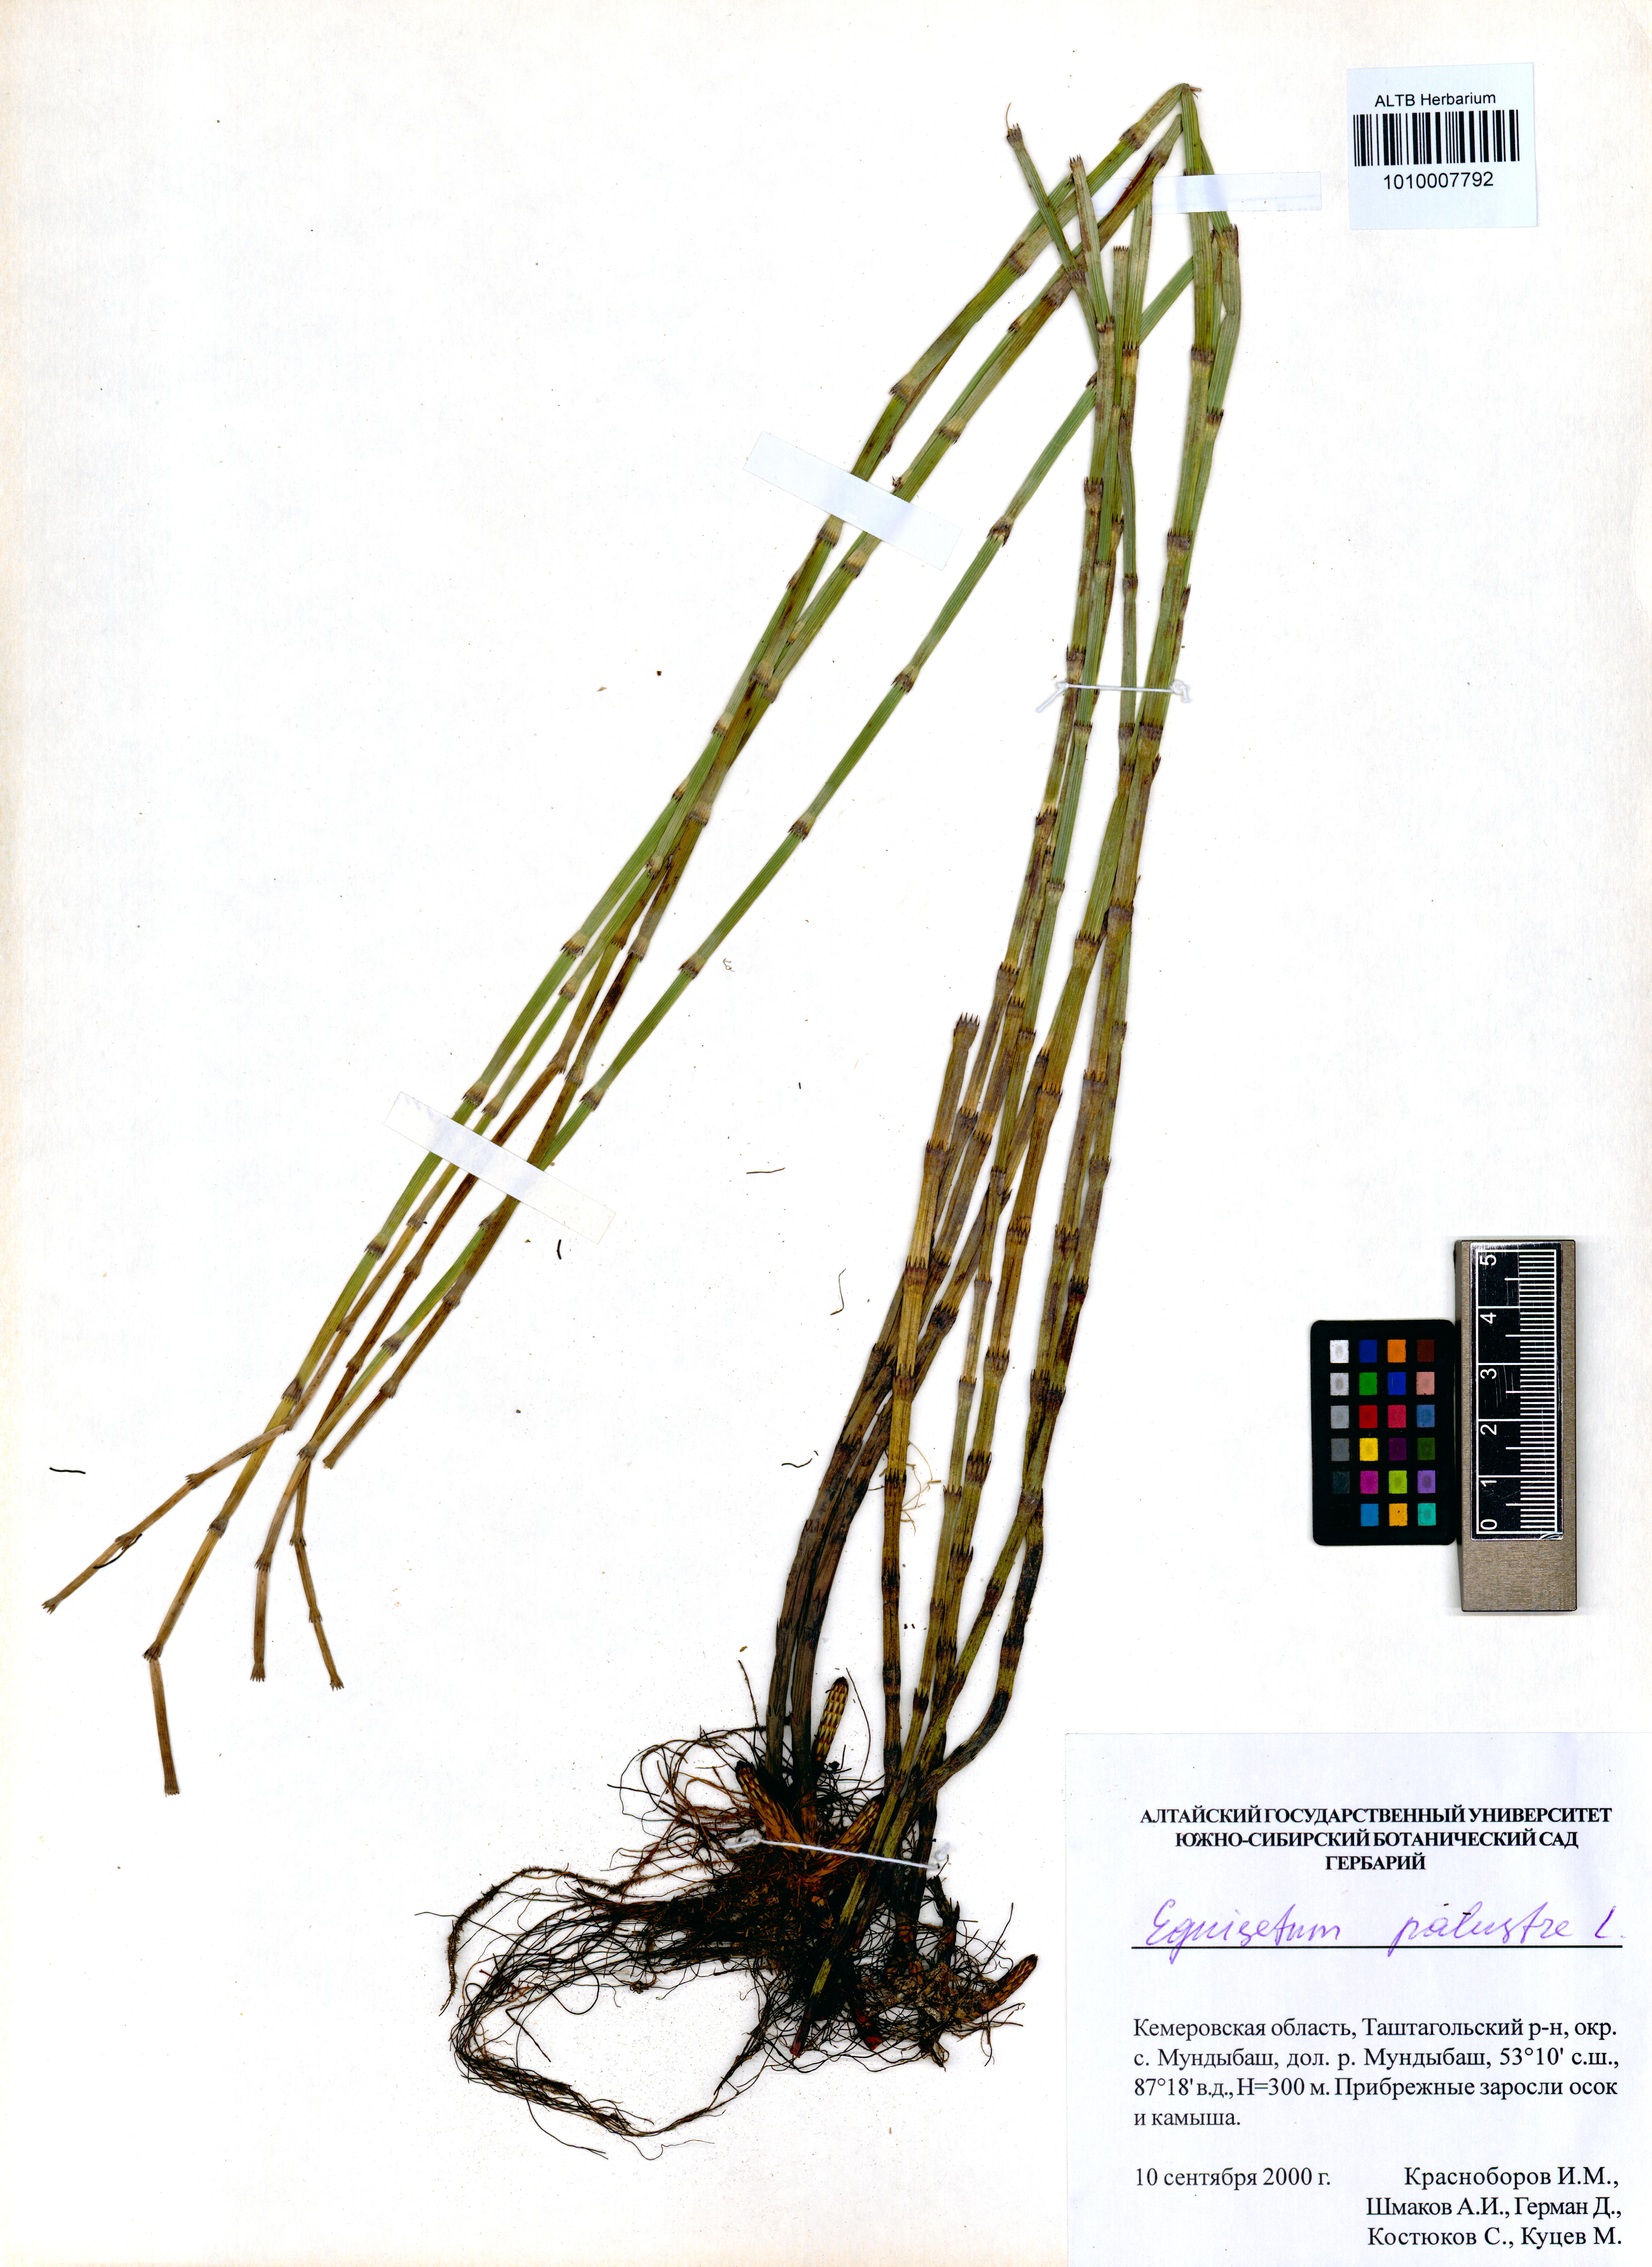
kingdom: Plantae
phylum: Tracheophyta
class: Polypodiopsida
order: Equisetales
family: Equisetaceae
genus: Equisetum
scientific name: Equisetum palustre
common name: Marsh horsetail
